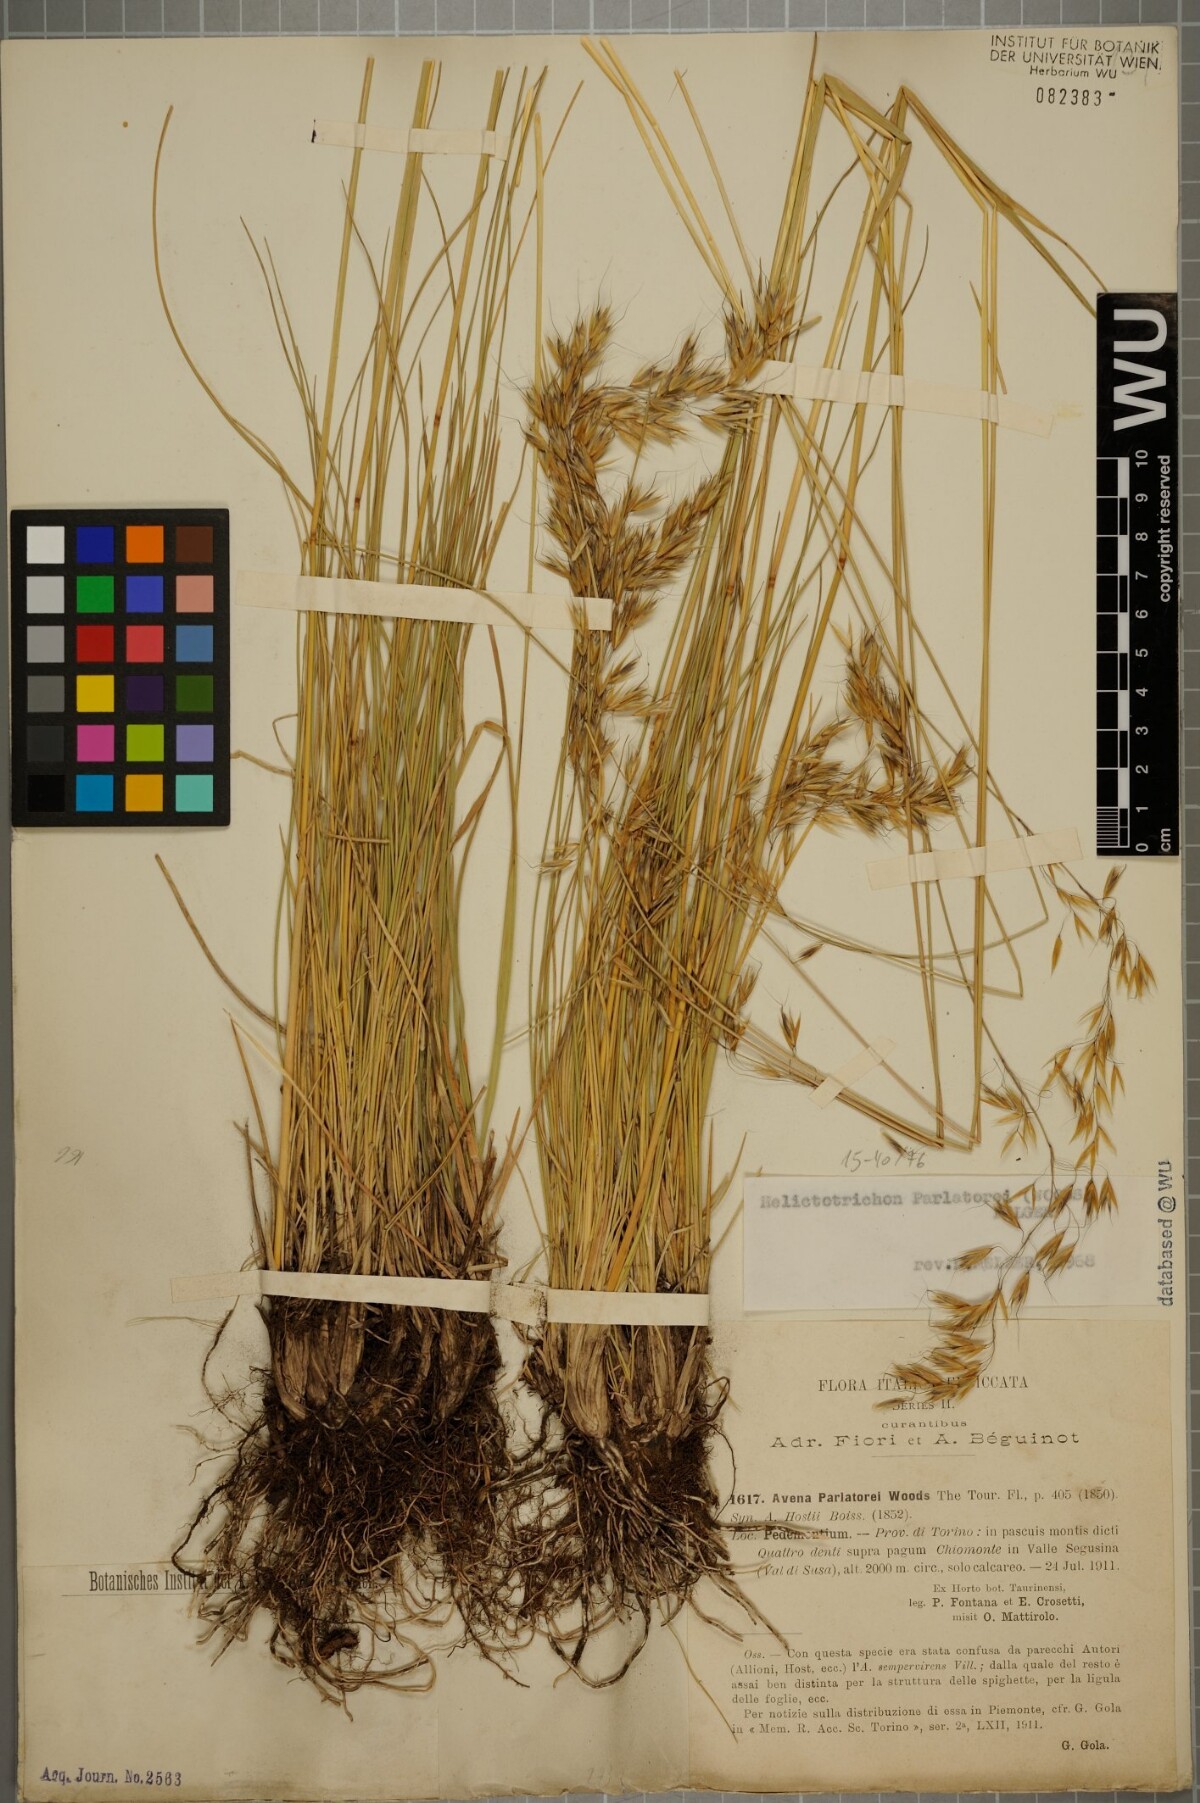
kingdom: Plantae
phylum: Tracheophyta
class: Liliopsida
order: Poales
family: Poaceae
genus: Helictotrichon
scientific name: Helictotrichon parlatorei
